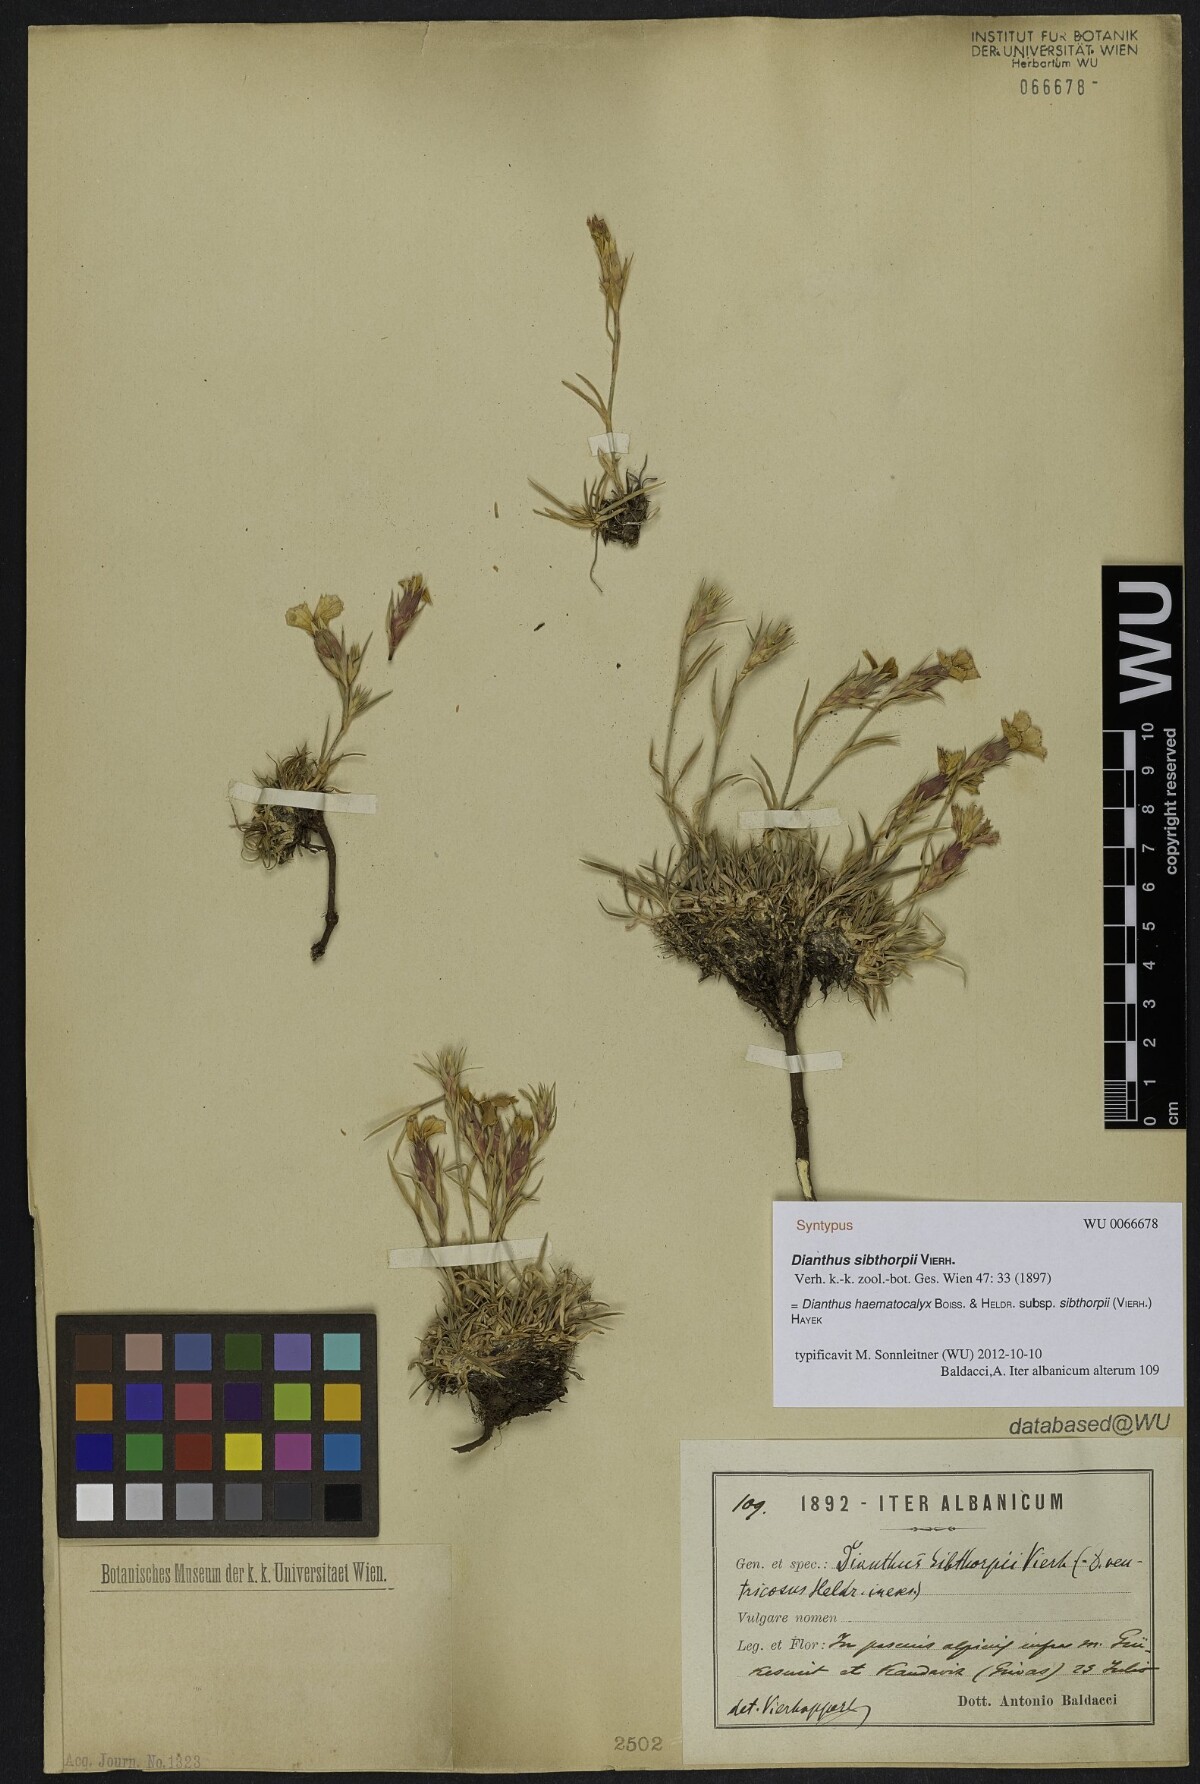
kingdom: Plantae
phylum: Tracheophyta
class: Magnoliopsida
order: Caryophyllales
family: Caryophyllaceae
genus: Dianthus
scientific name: Dianthus haematocalyx
